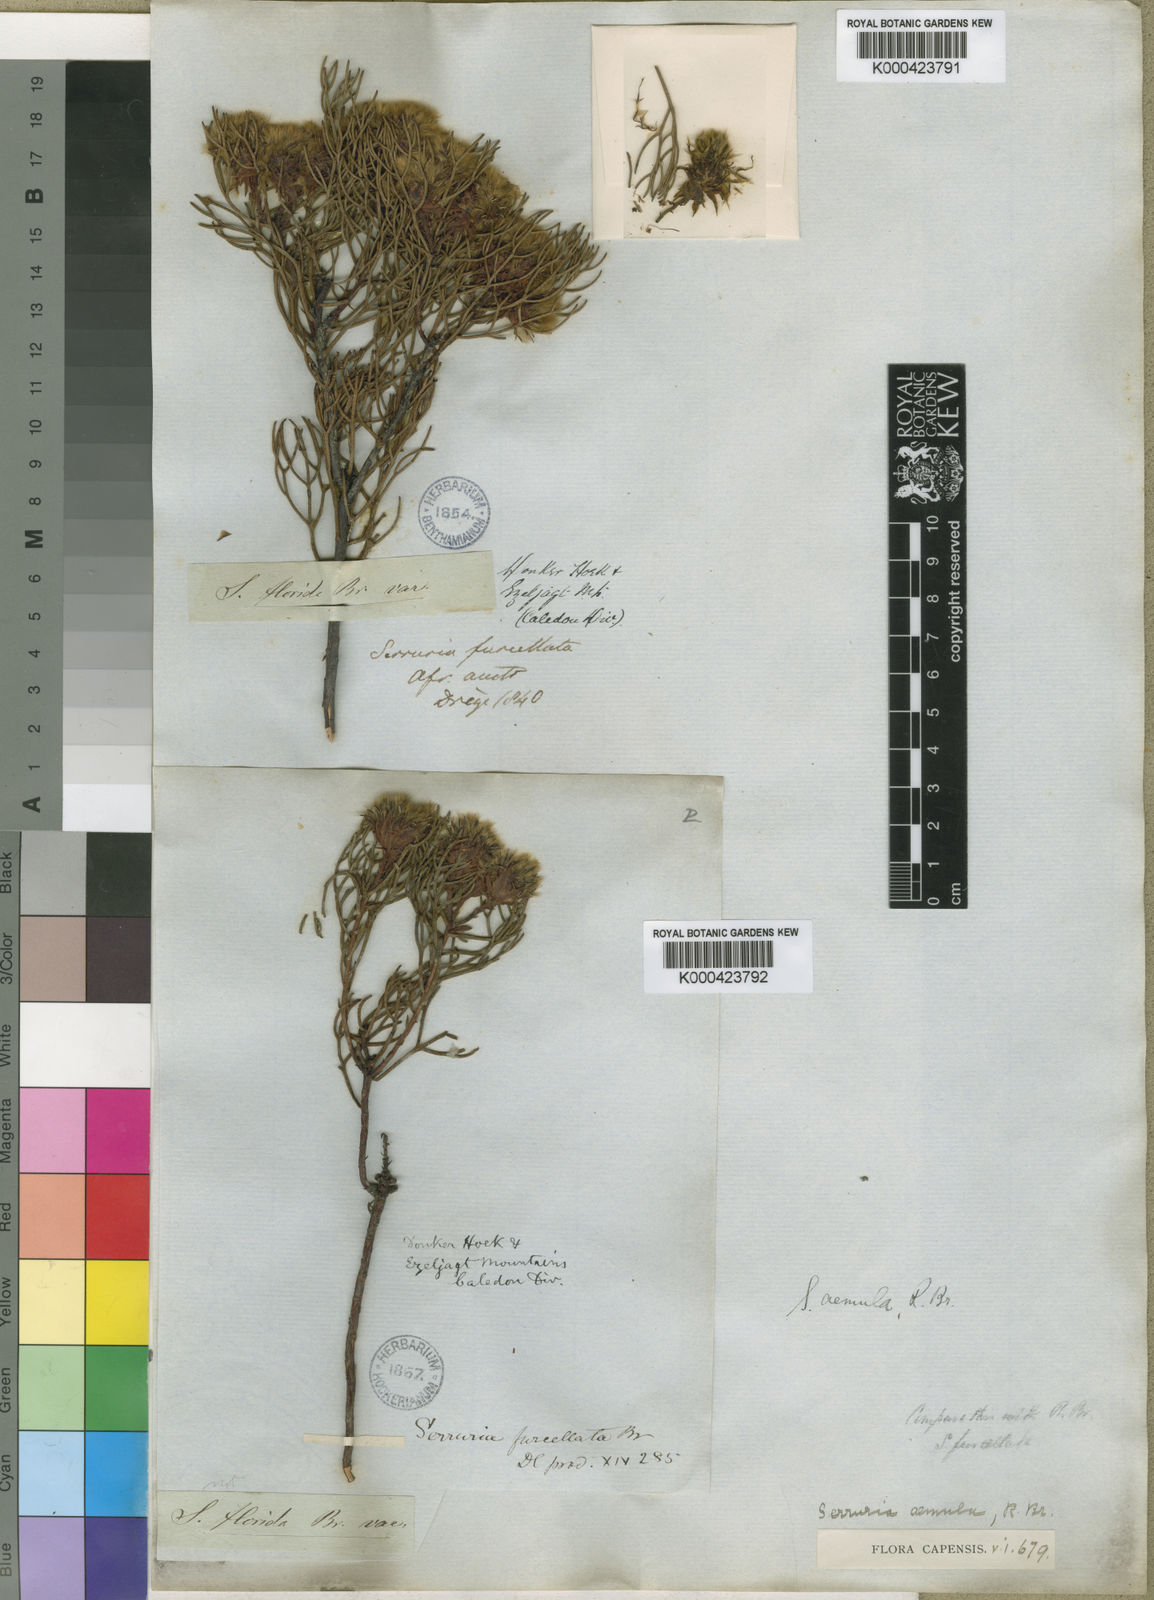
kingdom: Plantae
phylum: Tracheophyta
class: Magnoliopsida
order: Proteales
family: Proteaceae
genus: Serruria
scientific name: Serruria aemula
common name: Strawberry spiderhead
